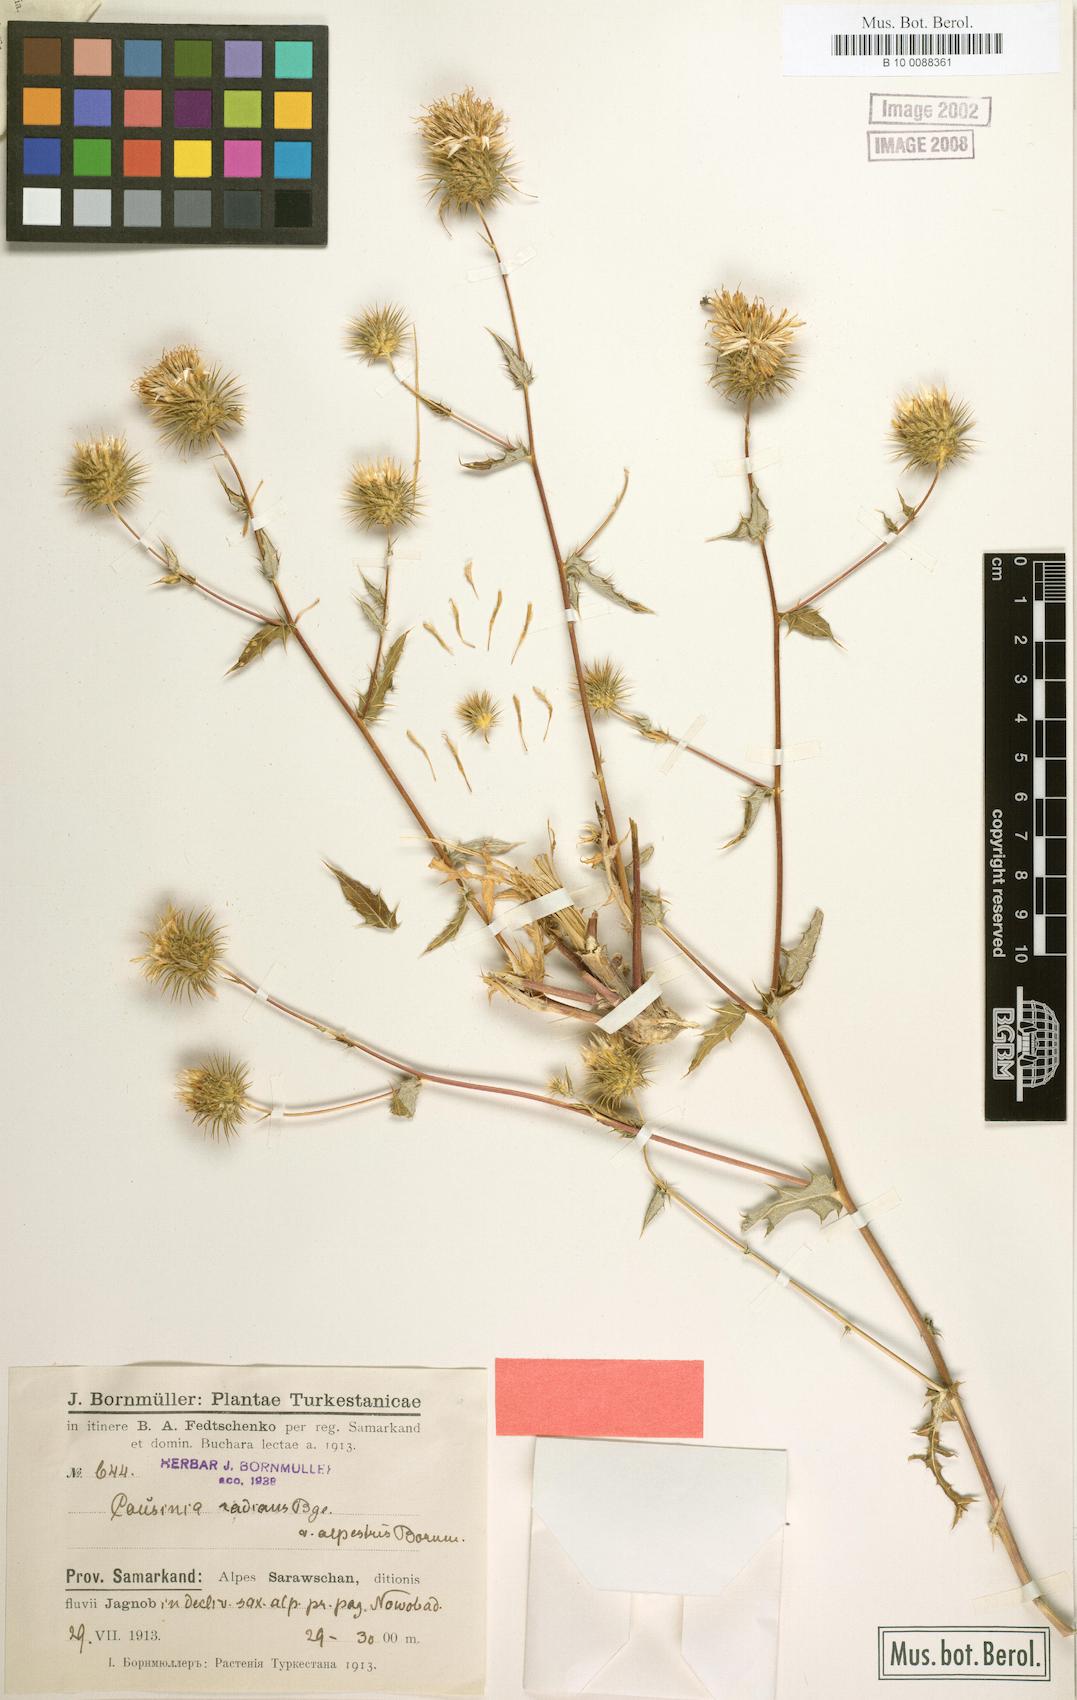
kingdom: Plantae
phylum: Tracheophyta
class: Magnoliopsida
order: Asterales
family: Asteraceae
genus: Cousinia
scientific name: Cousinia alpestris
